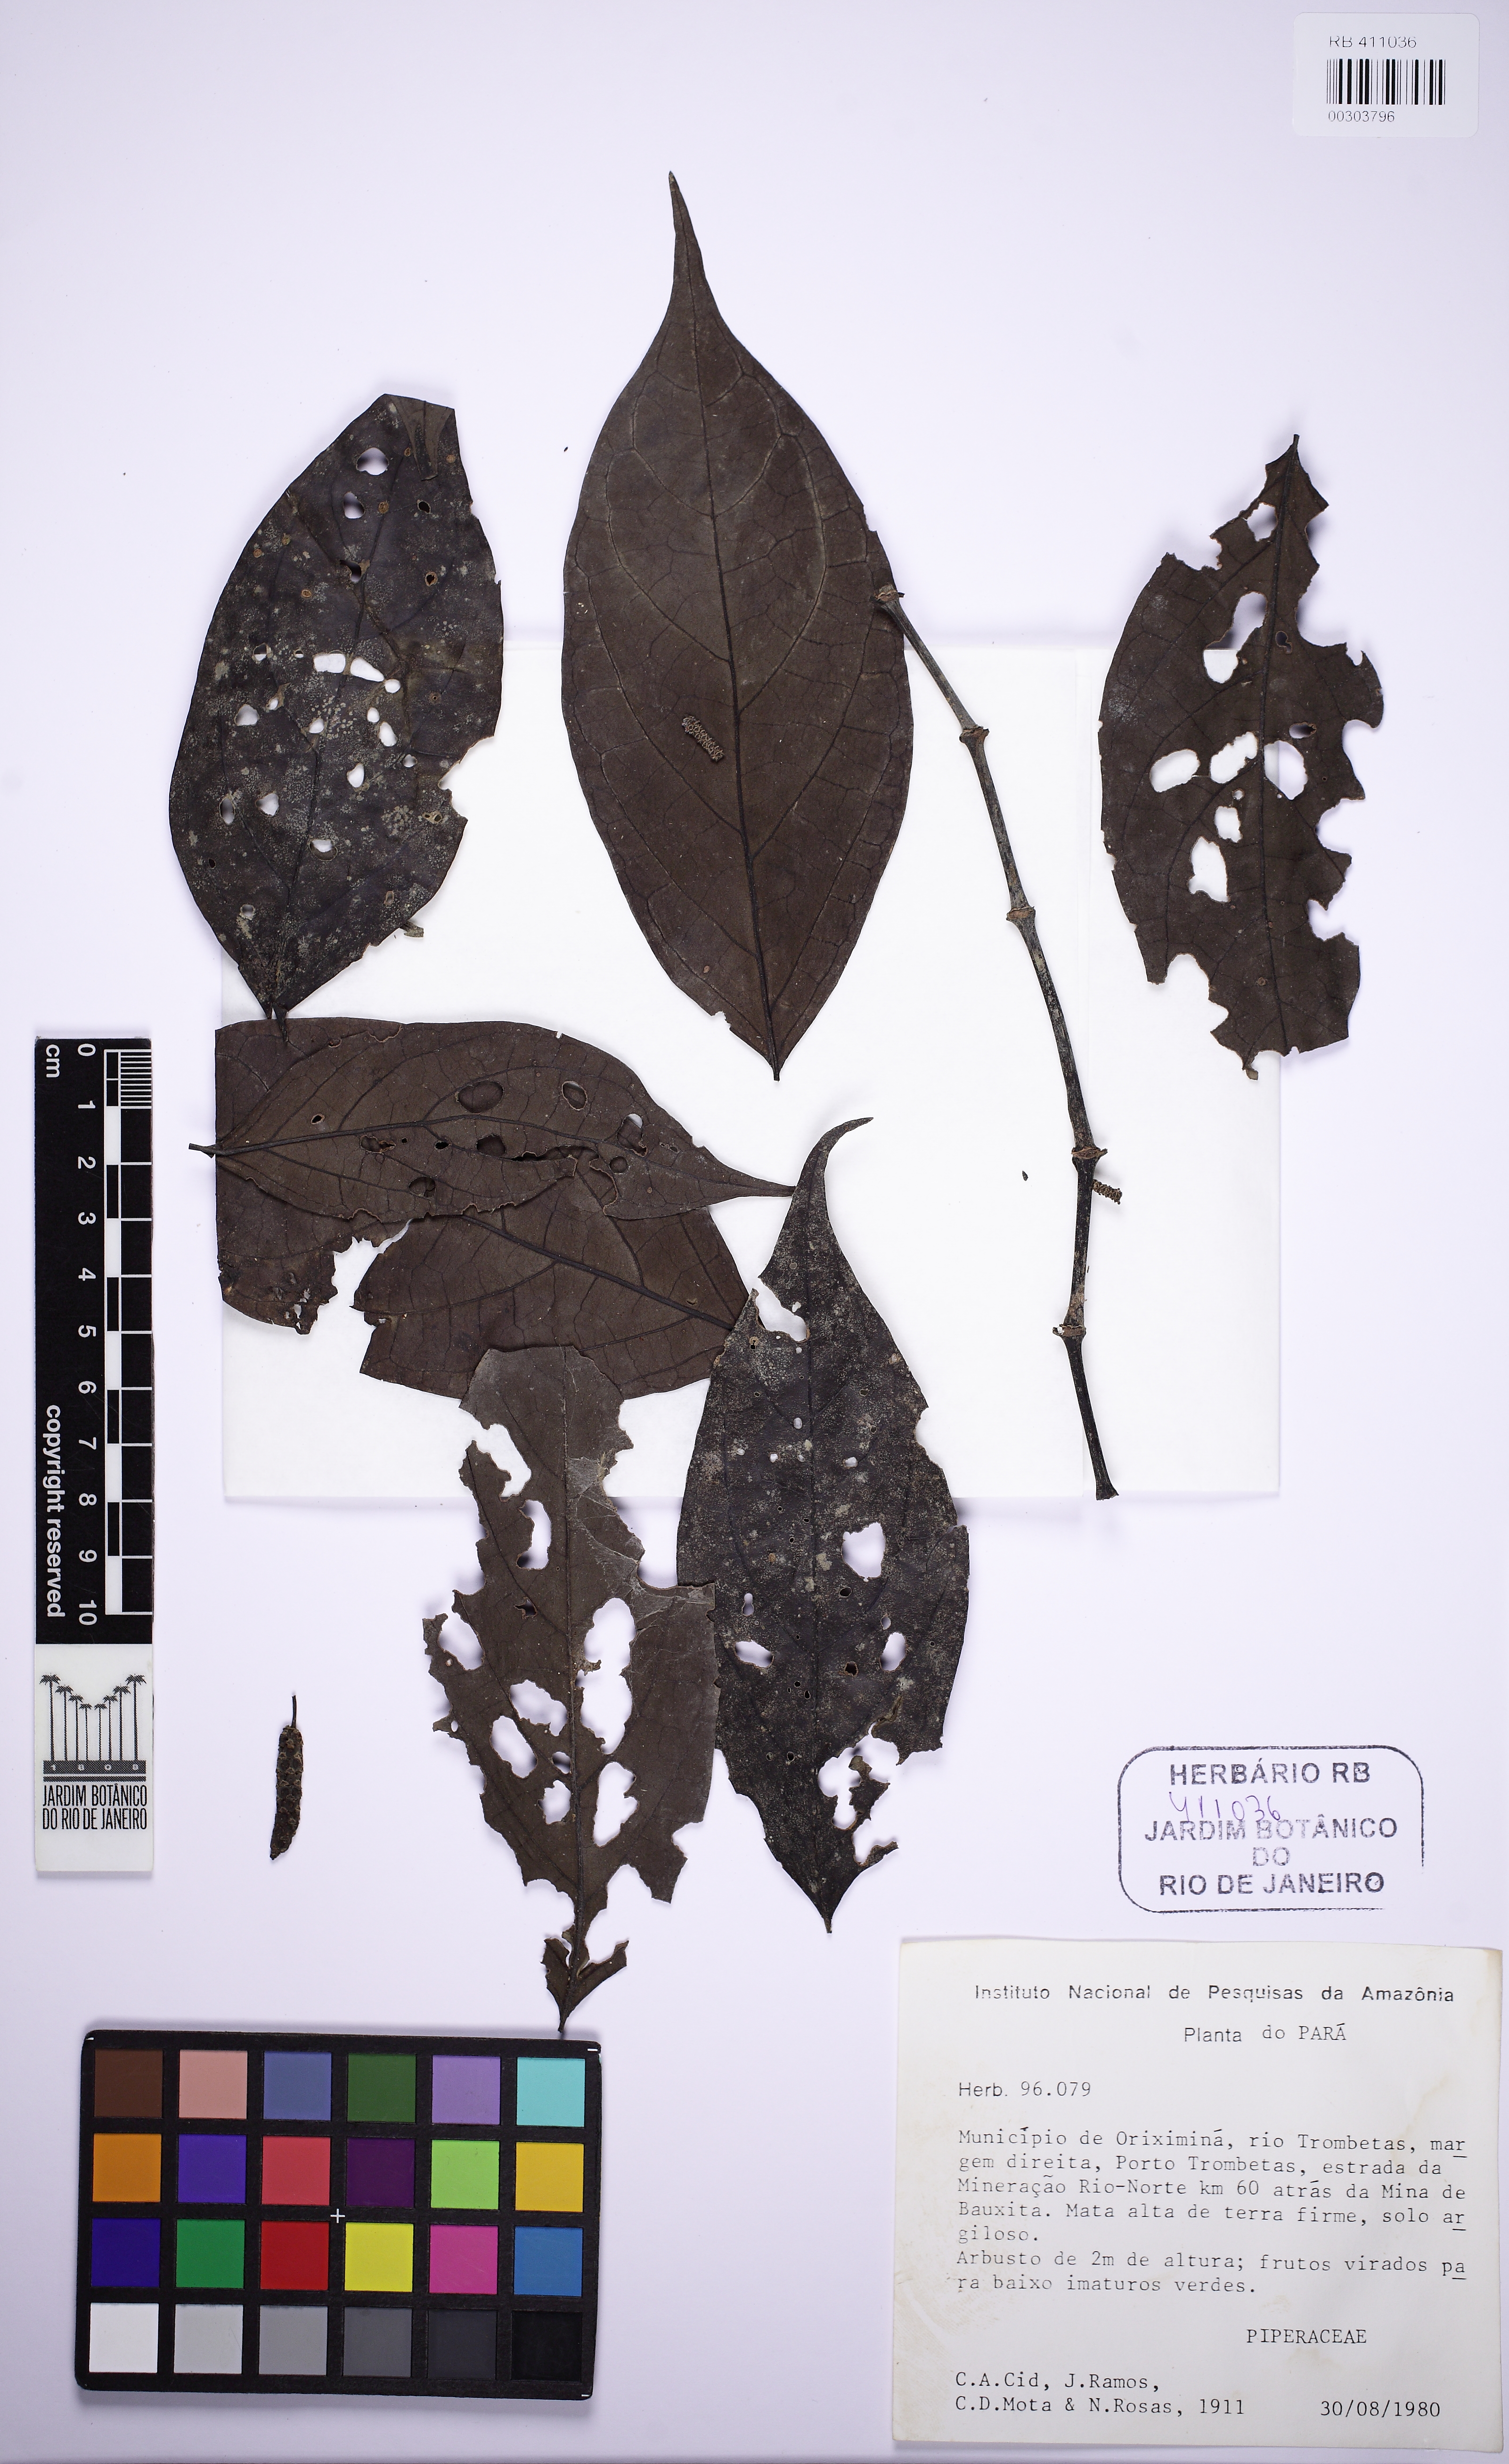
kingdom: Plantae
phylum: Tracheophyta
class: Magnoliopsida
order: Piperales
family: Piperaceae
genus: Piper
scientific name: Piper
